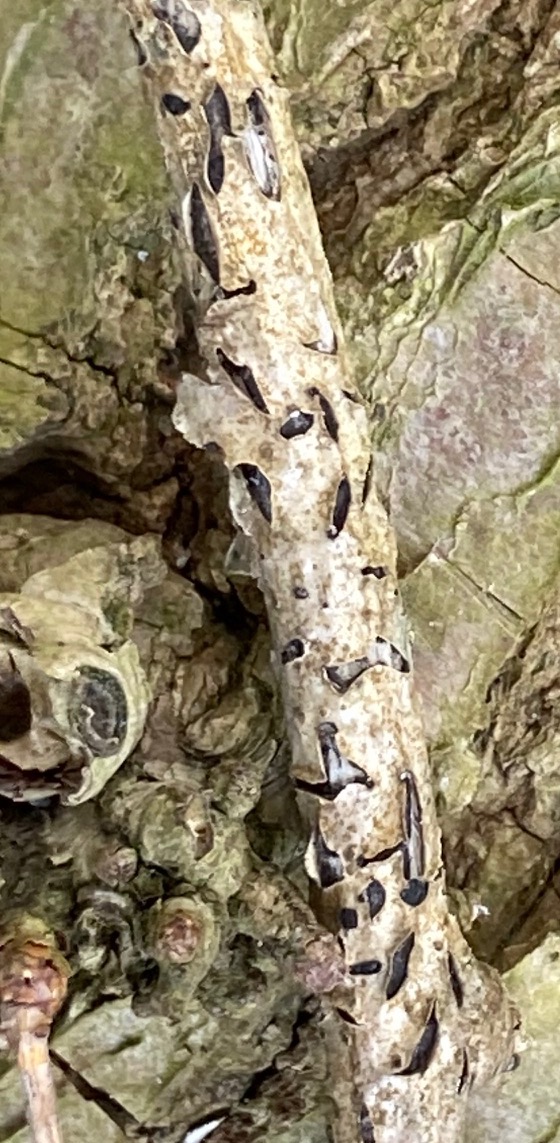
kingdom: Fungi
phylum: Ascomycota
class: Leotiomycetes
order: Rhytismatales
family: Rhytismataceae
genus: Colpoma
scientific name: Colpoma quercinum
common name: ege-sprækkeskive
